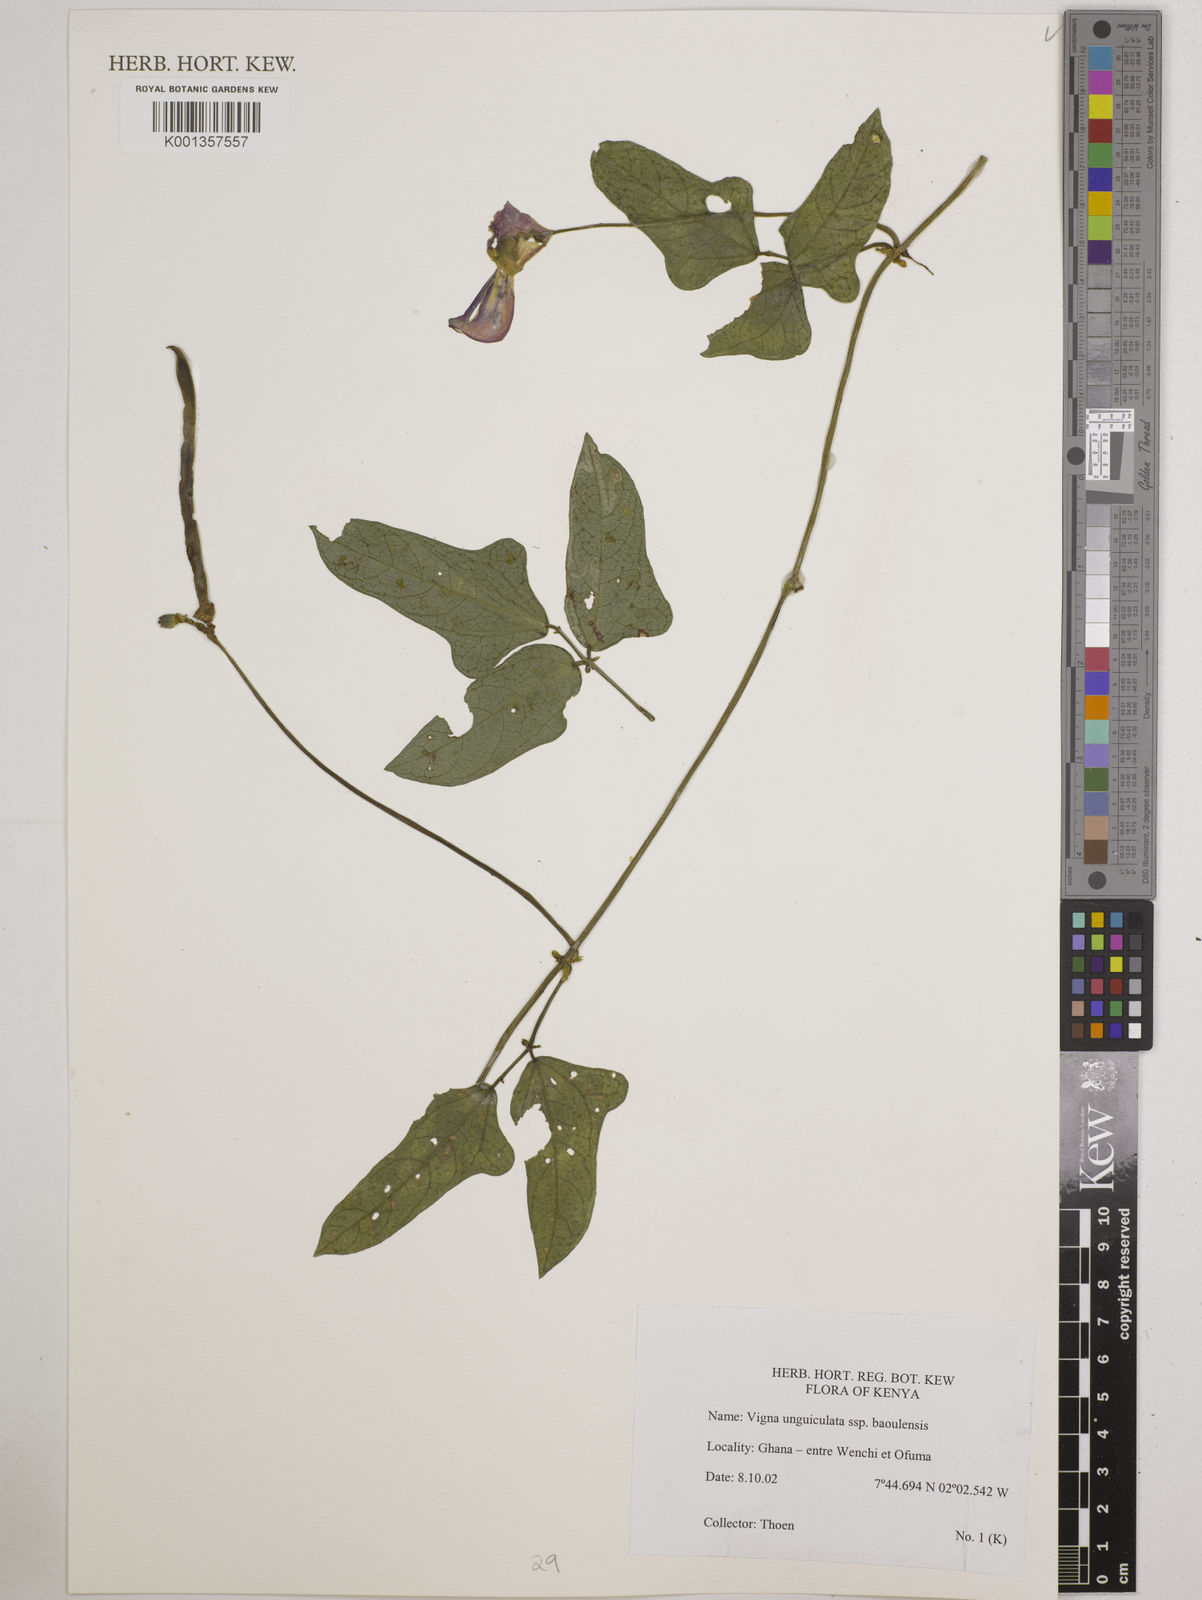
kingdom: Plantae
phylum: Tracheophyta
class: Magnoliopsida
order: Fabales
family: Fabaceae
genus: Vigna
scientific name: Vigna unguiculata
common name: Cowpea
